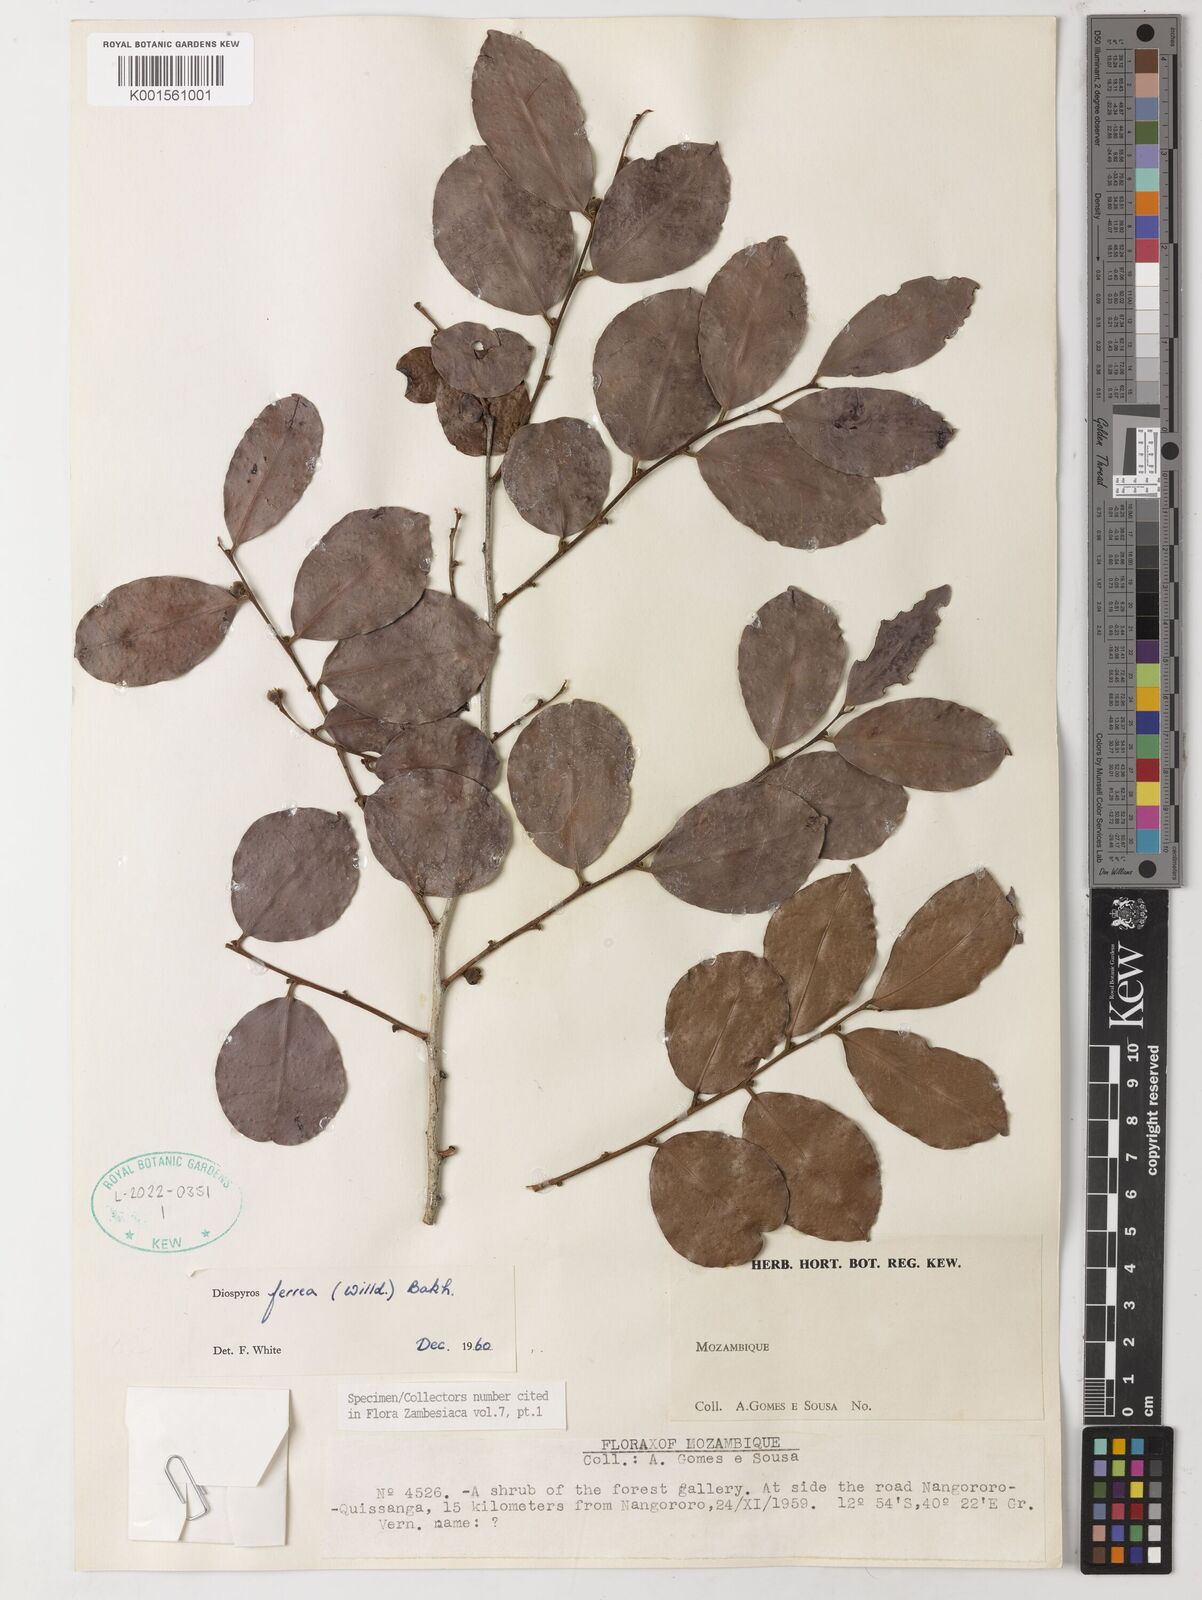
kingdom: Plantae
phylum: Tracheophyta
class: Magnoliopsida
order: Ericales
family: Ebenaceae
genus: Diospyros
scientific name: Diospyros ferrea
